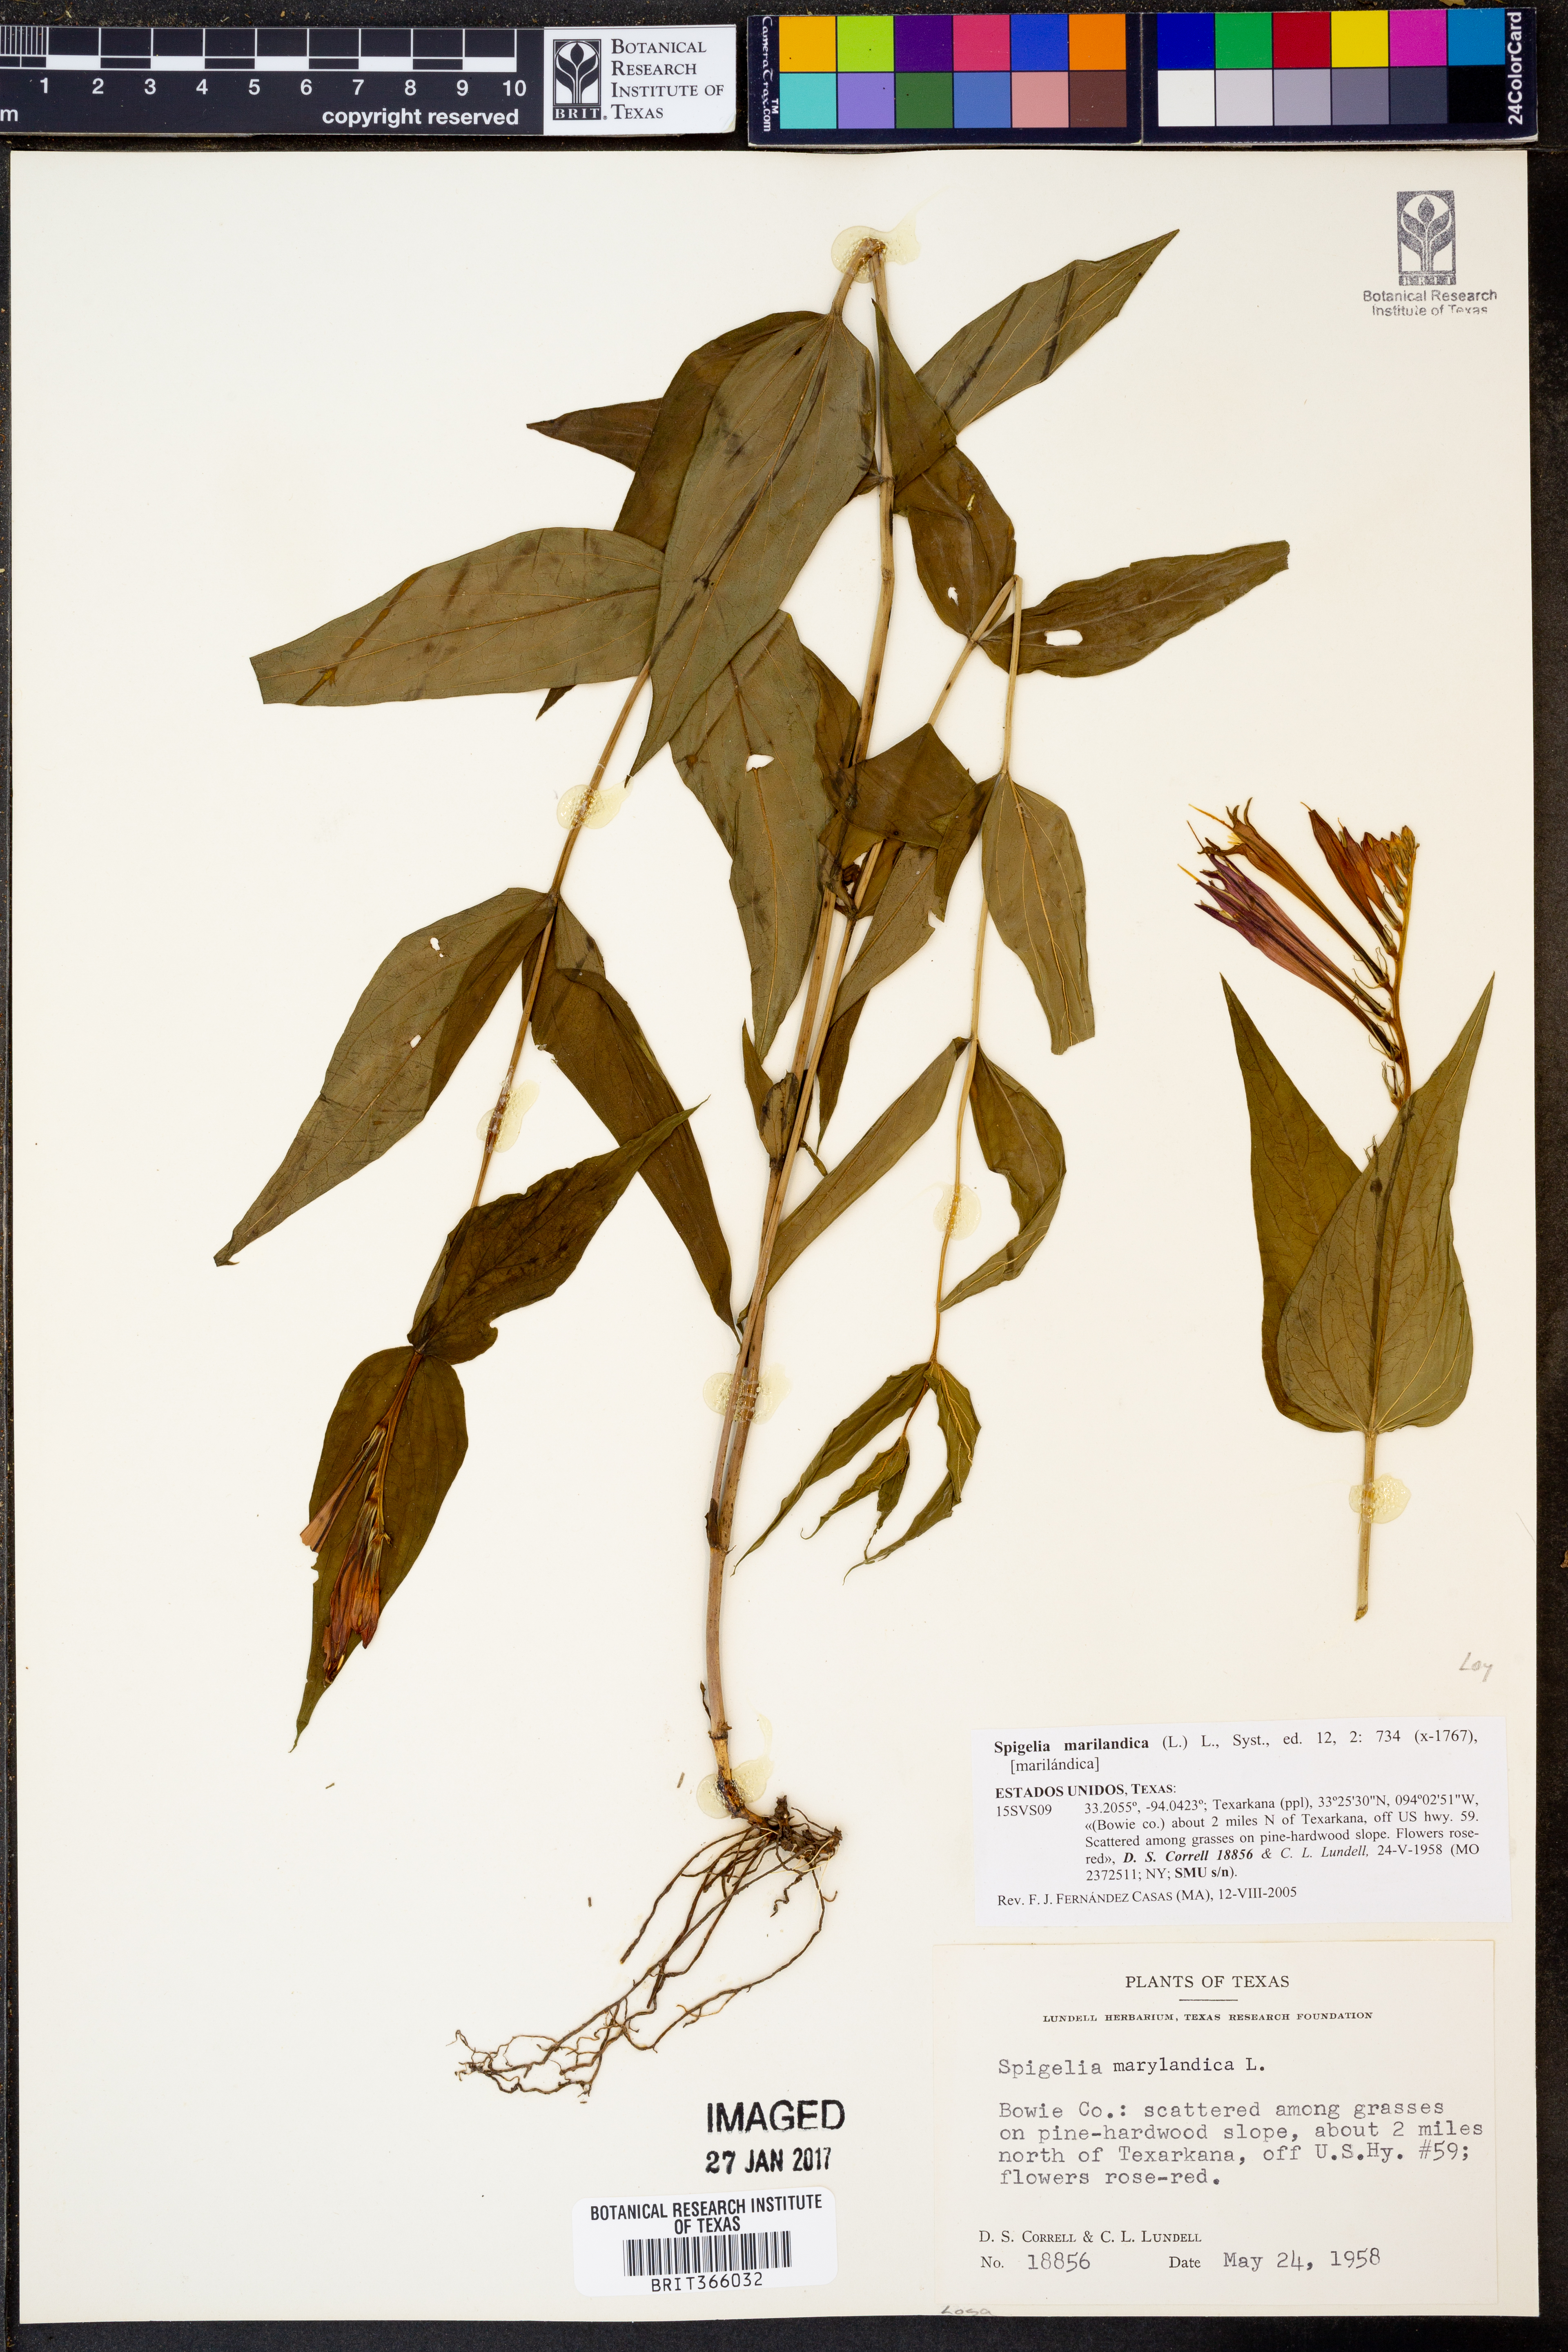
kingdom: Plantae
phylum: Tracheophyta
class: Magnoliopsida
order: Gentianales
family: Loganiaceae
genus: Spigelia
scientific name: Spigelia marilandica
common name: Indian-pink
